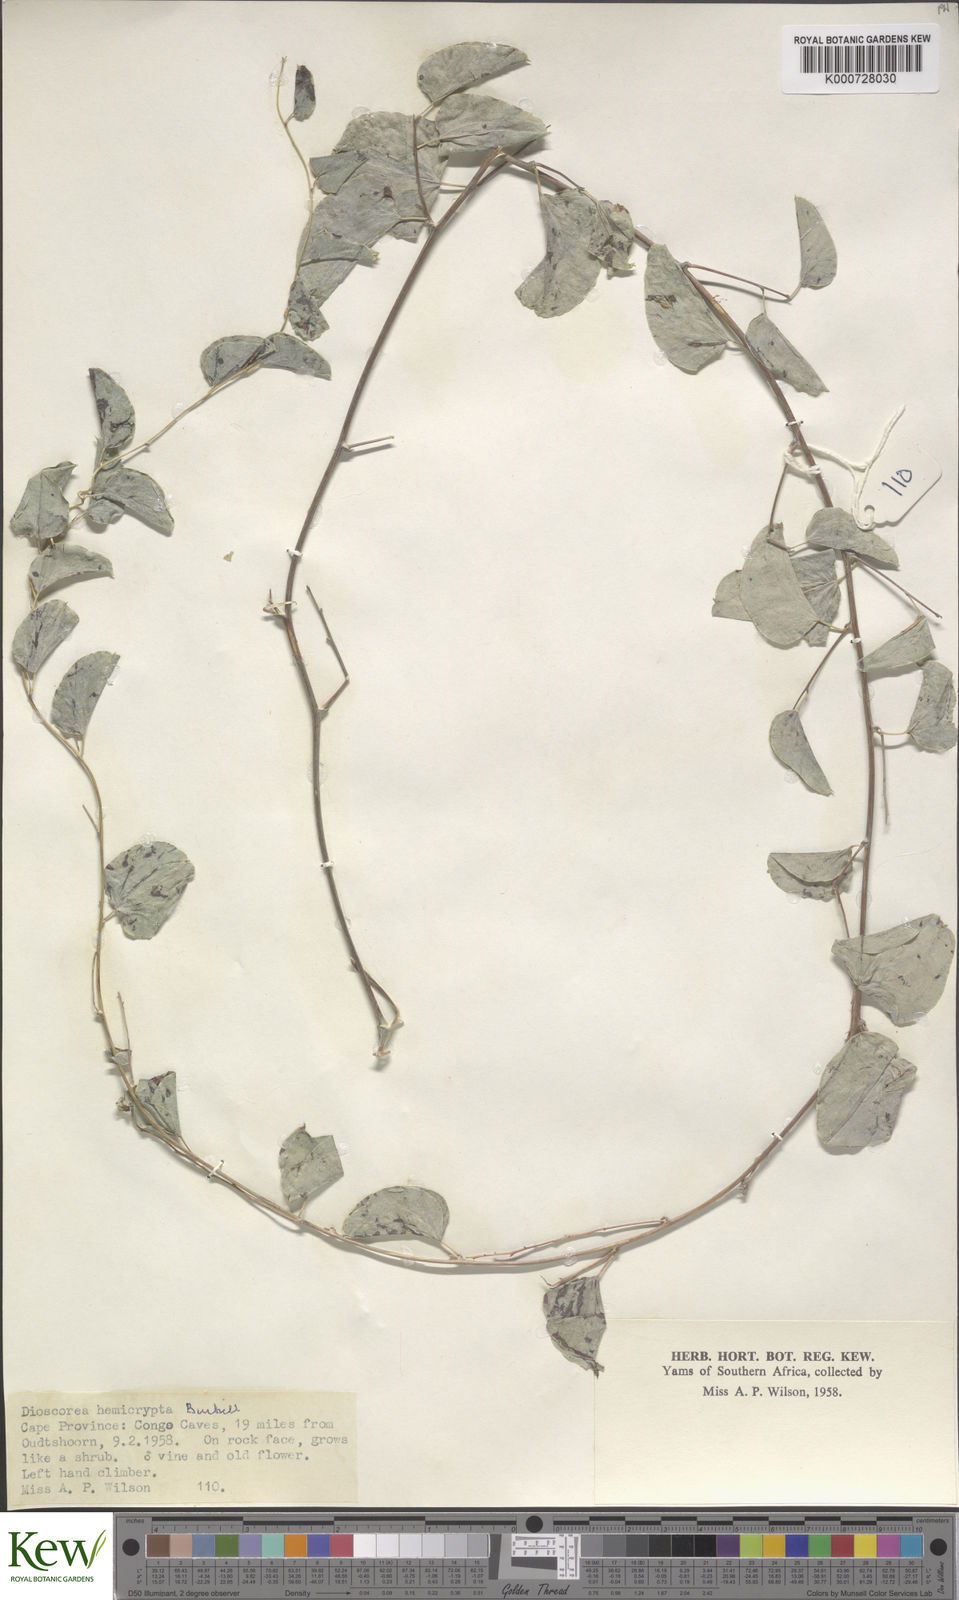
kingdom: Plantae
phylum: Tracheophyta
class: Liliopsida
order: Dioscoreales
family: Dioscoreaceae
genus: Dioscorea
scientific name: Dioscorea hemicrypta
